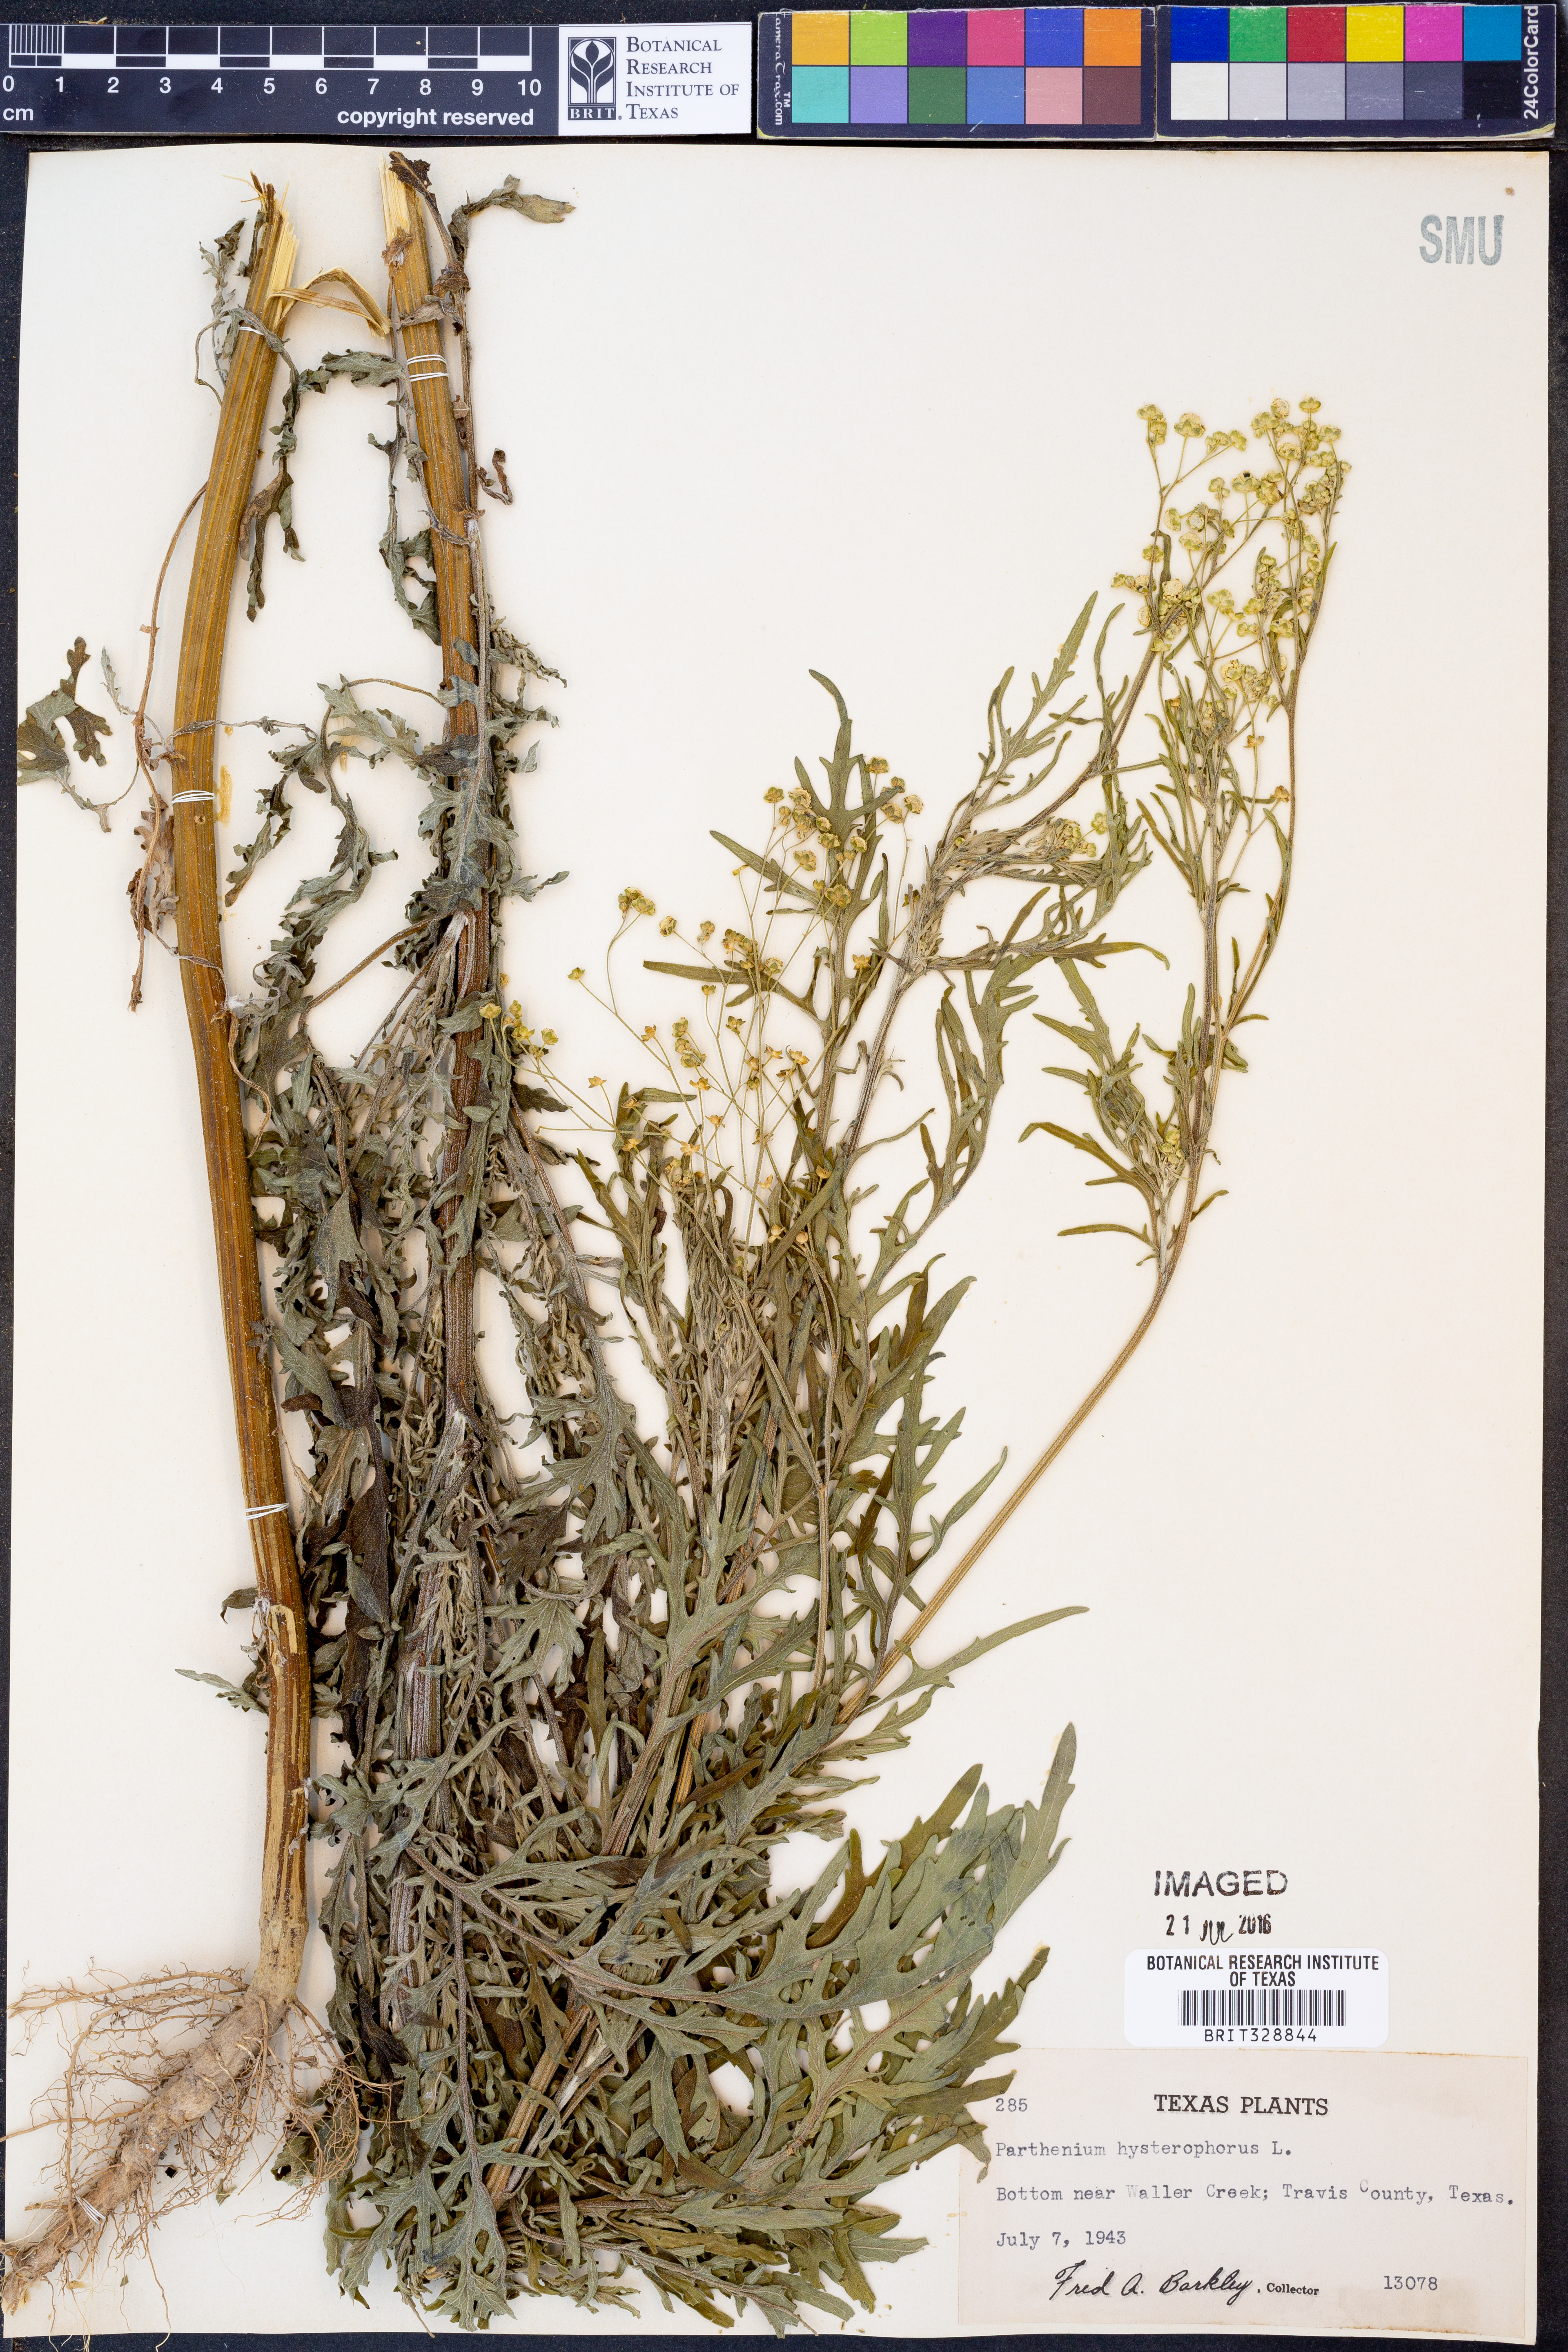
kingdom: Plantae
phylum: Tracheophyta
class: Magnoliopsida
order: Asterales
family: Asteraceae
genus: Parthenium
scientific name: Parthenium hysterophorus
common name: Santa maria feverfew
